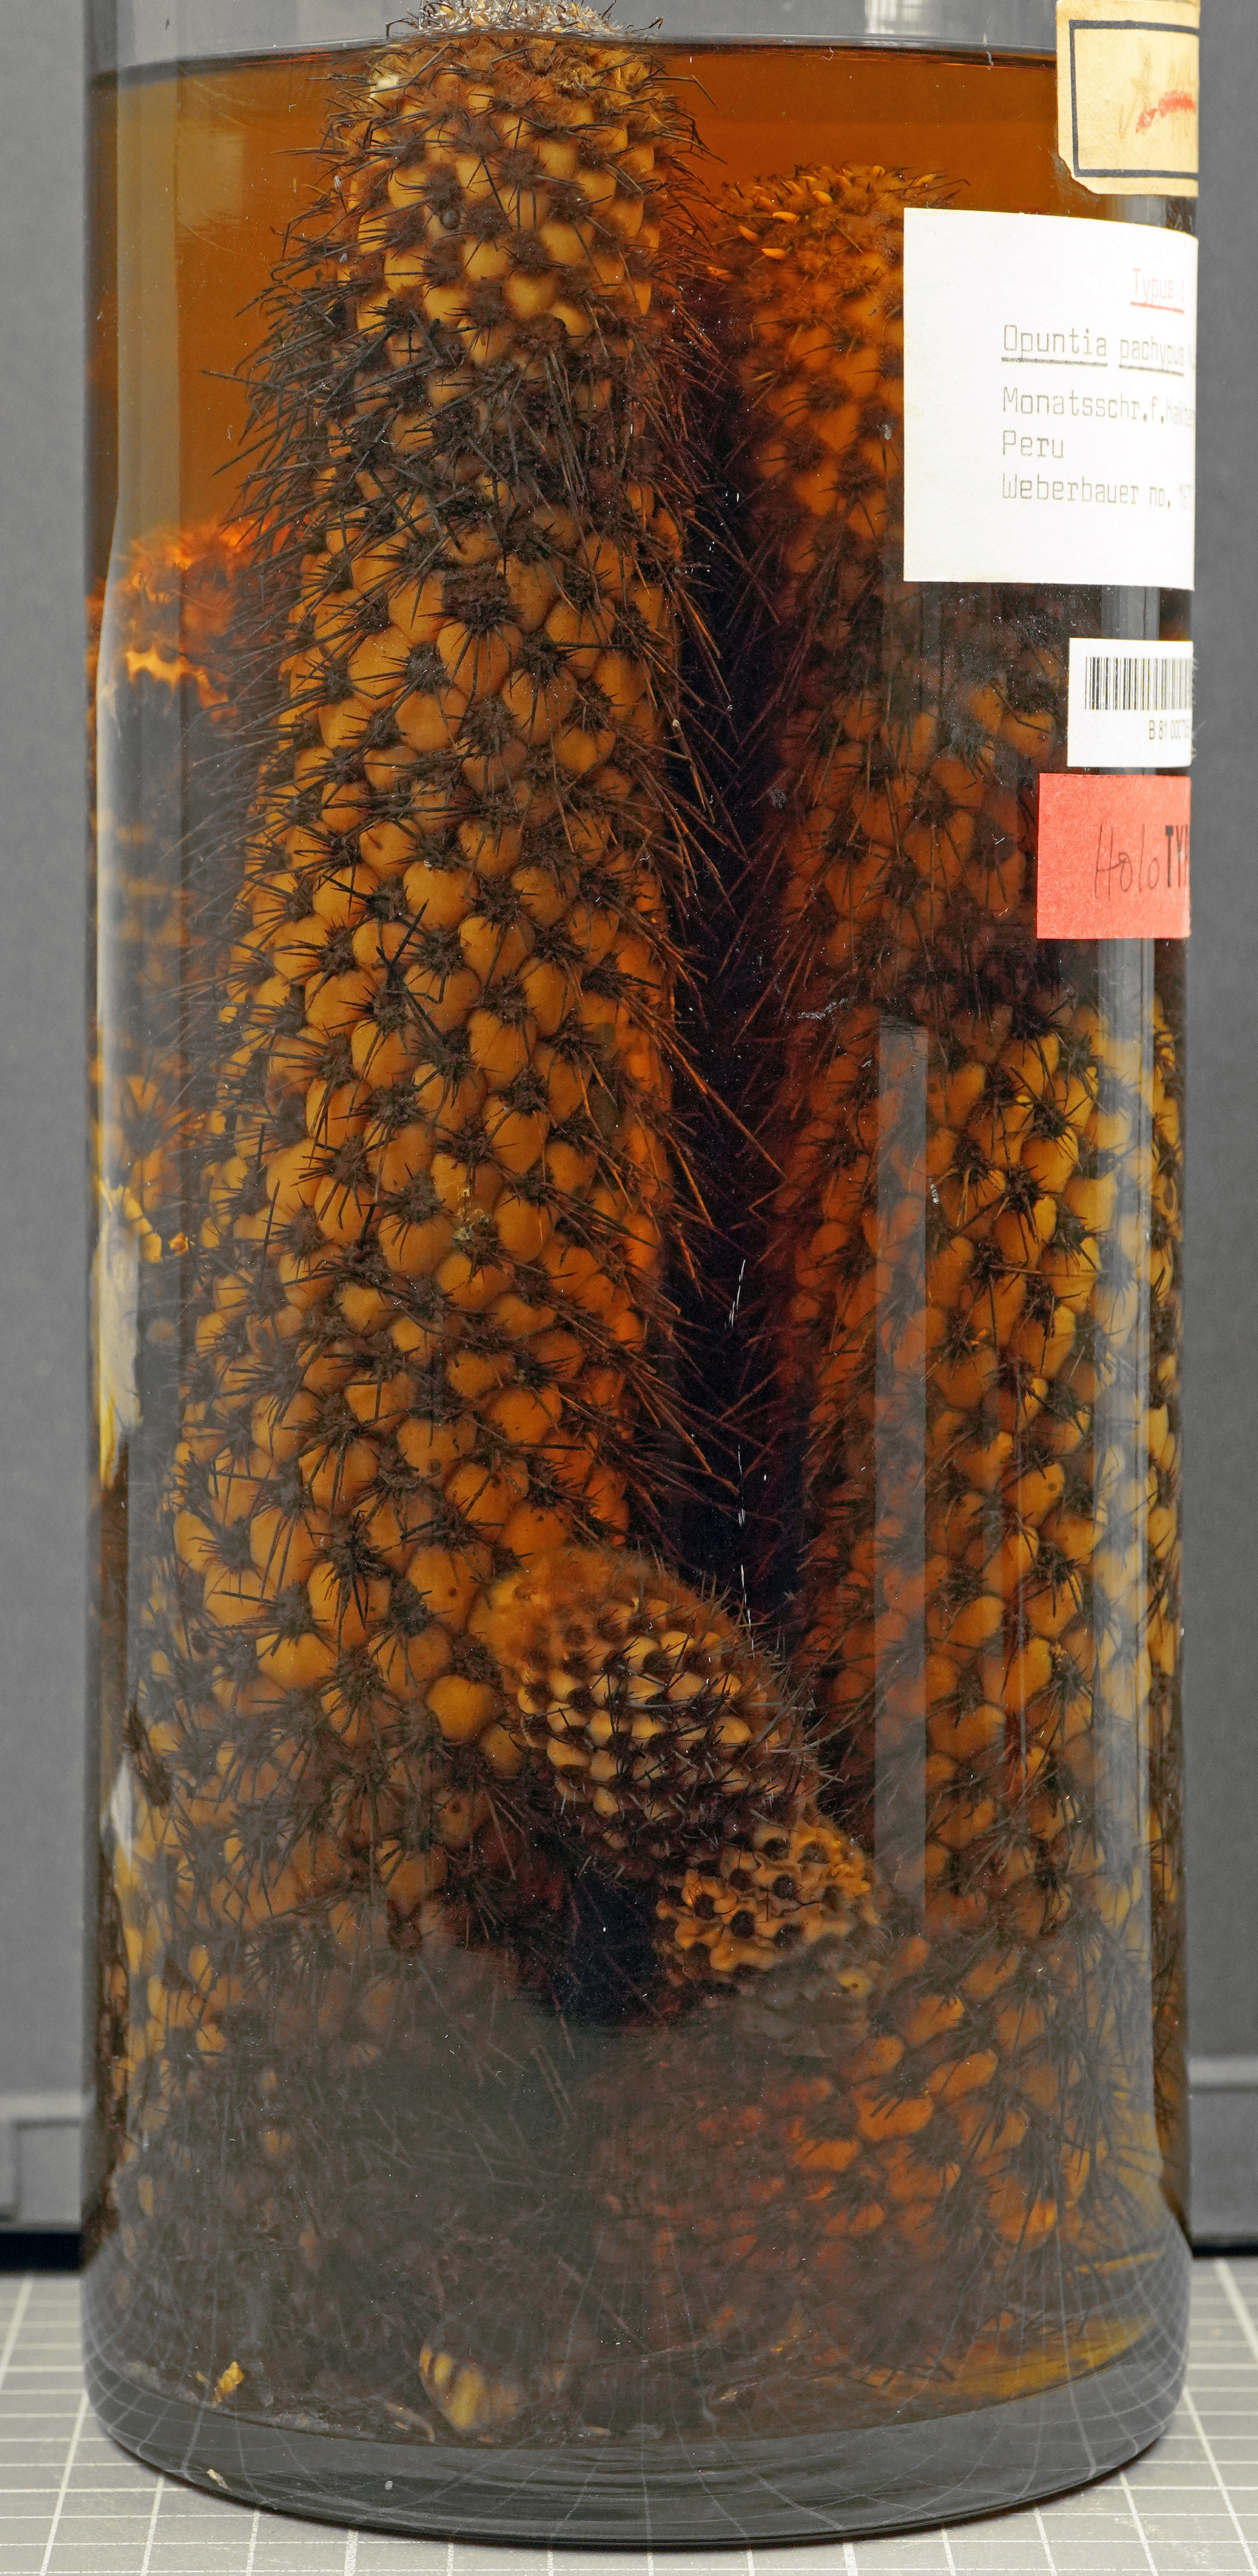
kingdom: Plantae
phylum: Tracheophyta
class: Magnoliopsida
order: Caryophyllales
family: Cactaceae
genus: Austrocylindropuntia
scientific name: Austrocylindropuntia pachypus
